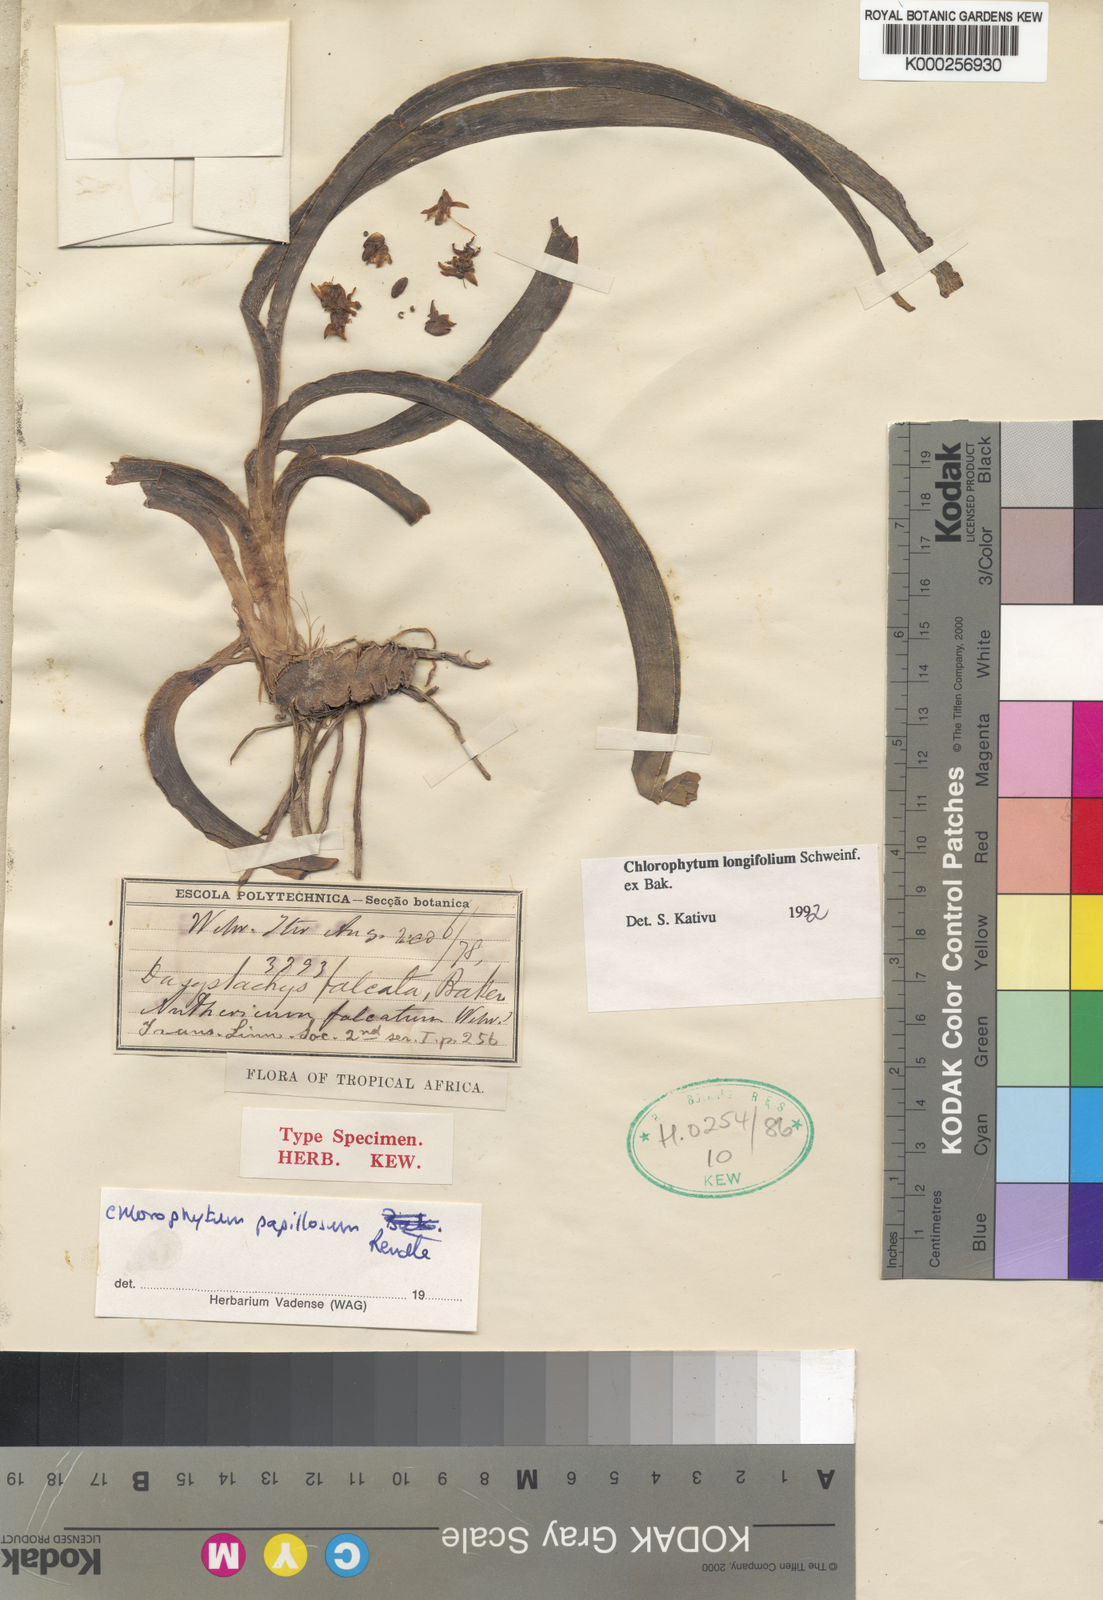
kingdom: Plantae
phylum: Tracheophyta
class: Liliopsida
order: Asparagales
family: Asparagaceae
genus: Chlorophytum
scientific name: Chlorophytum longifolium
